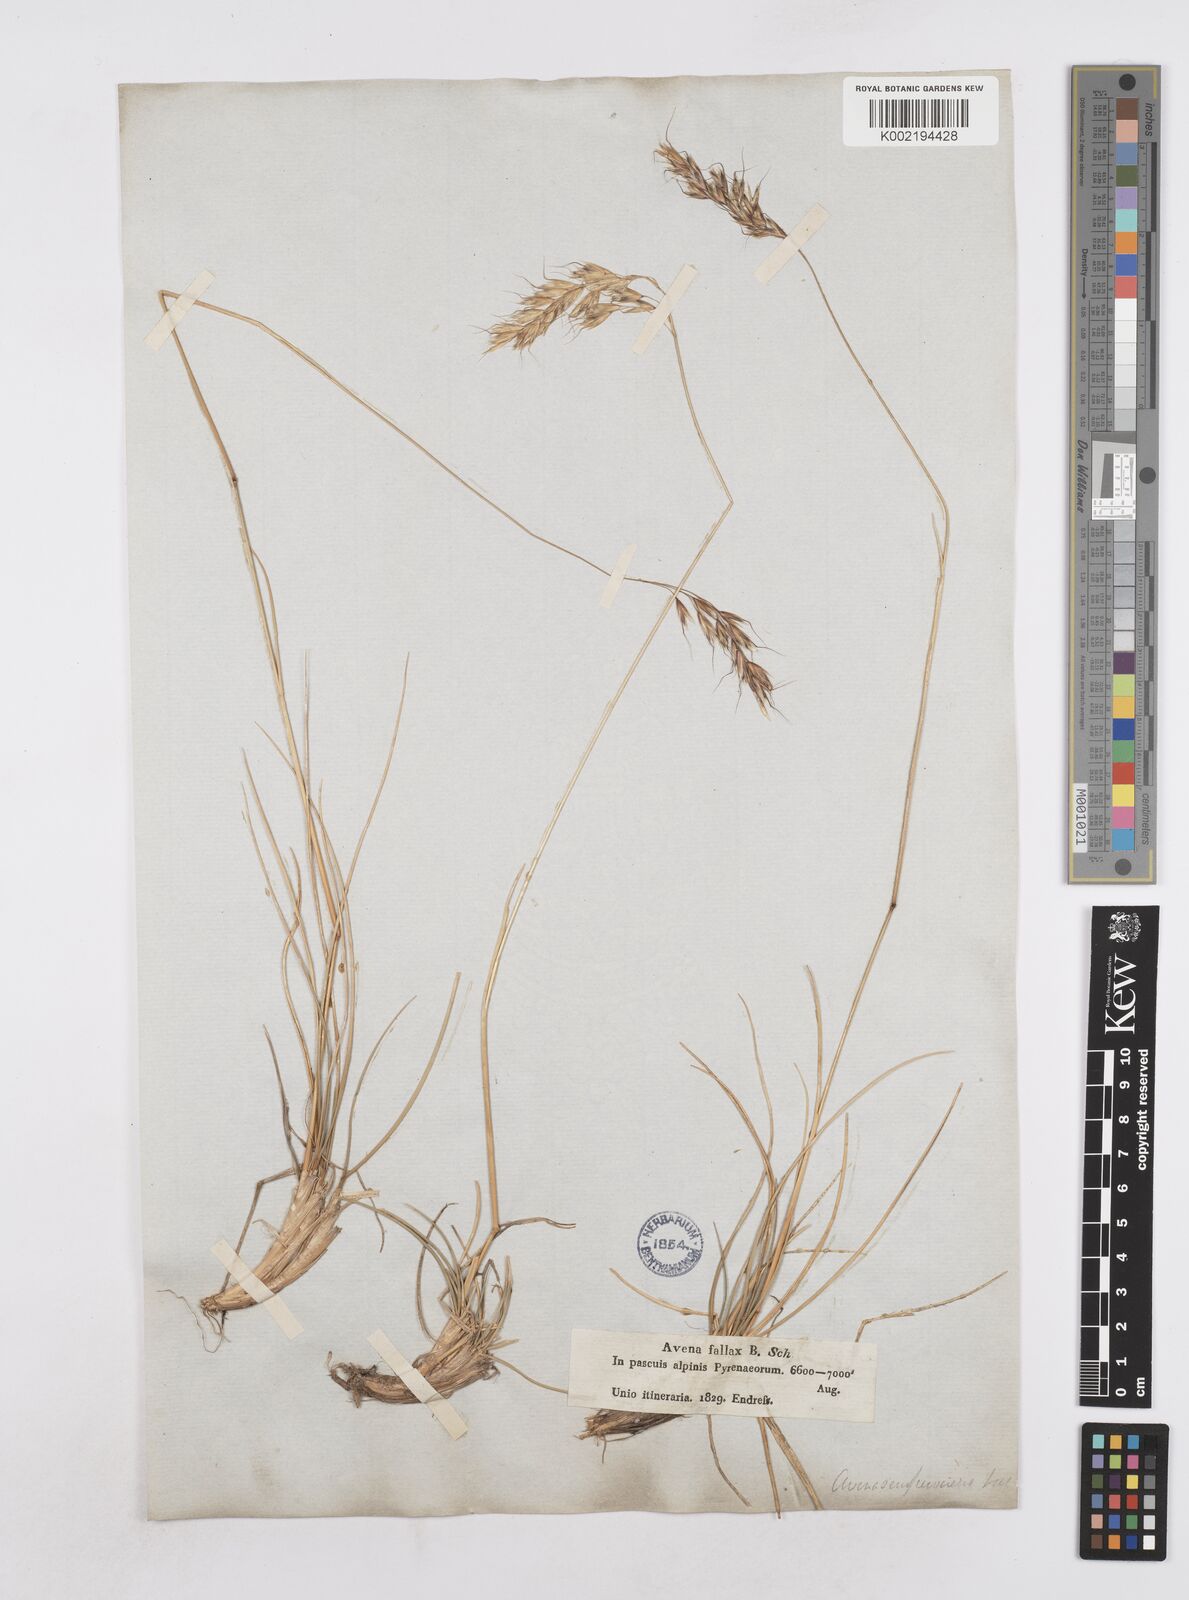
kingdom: Plantae
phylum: Tracheophyta
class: Liliopsida
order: Poales
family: Poaceae
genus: Helictotrichon
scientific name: Helictotrichon sempervirens
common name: Blue oat-grass
